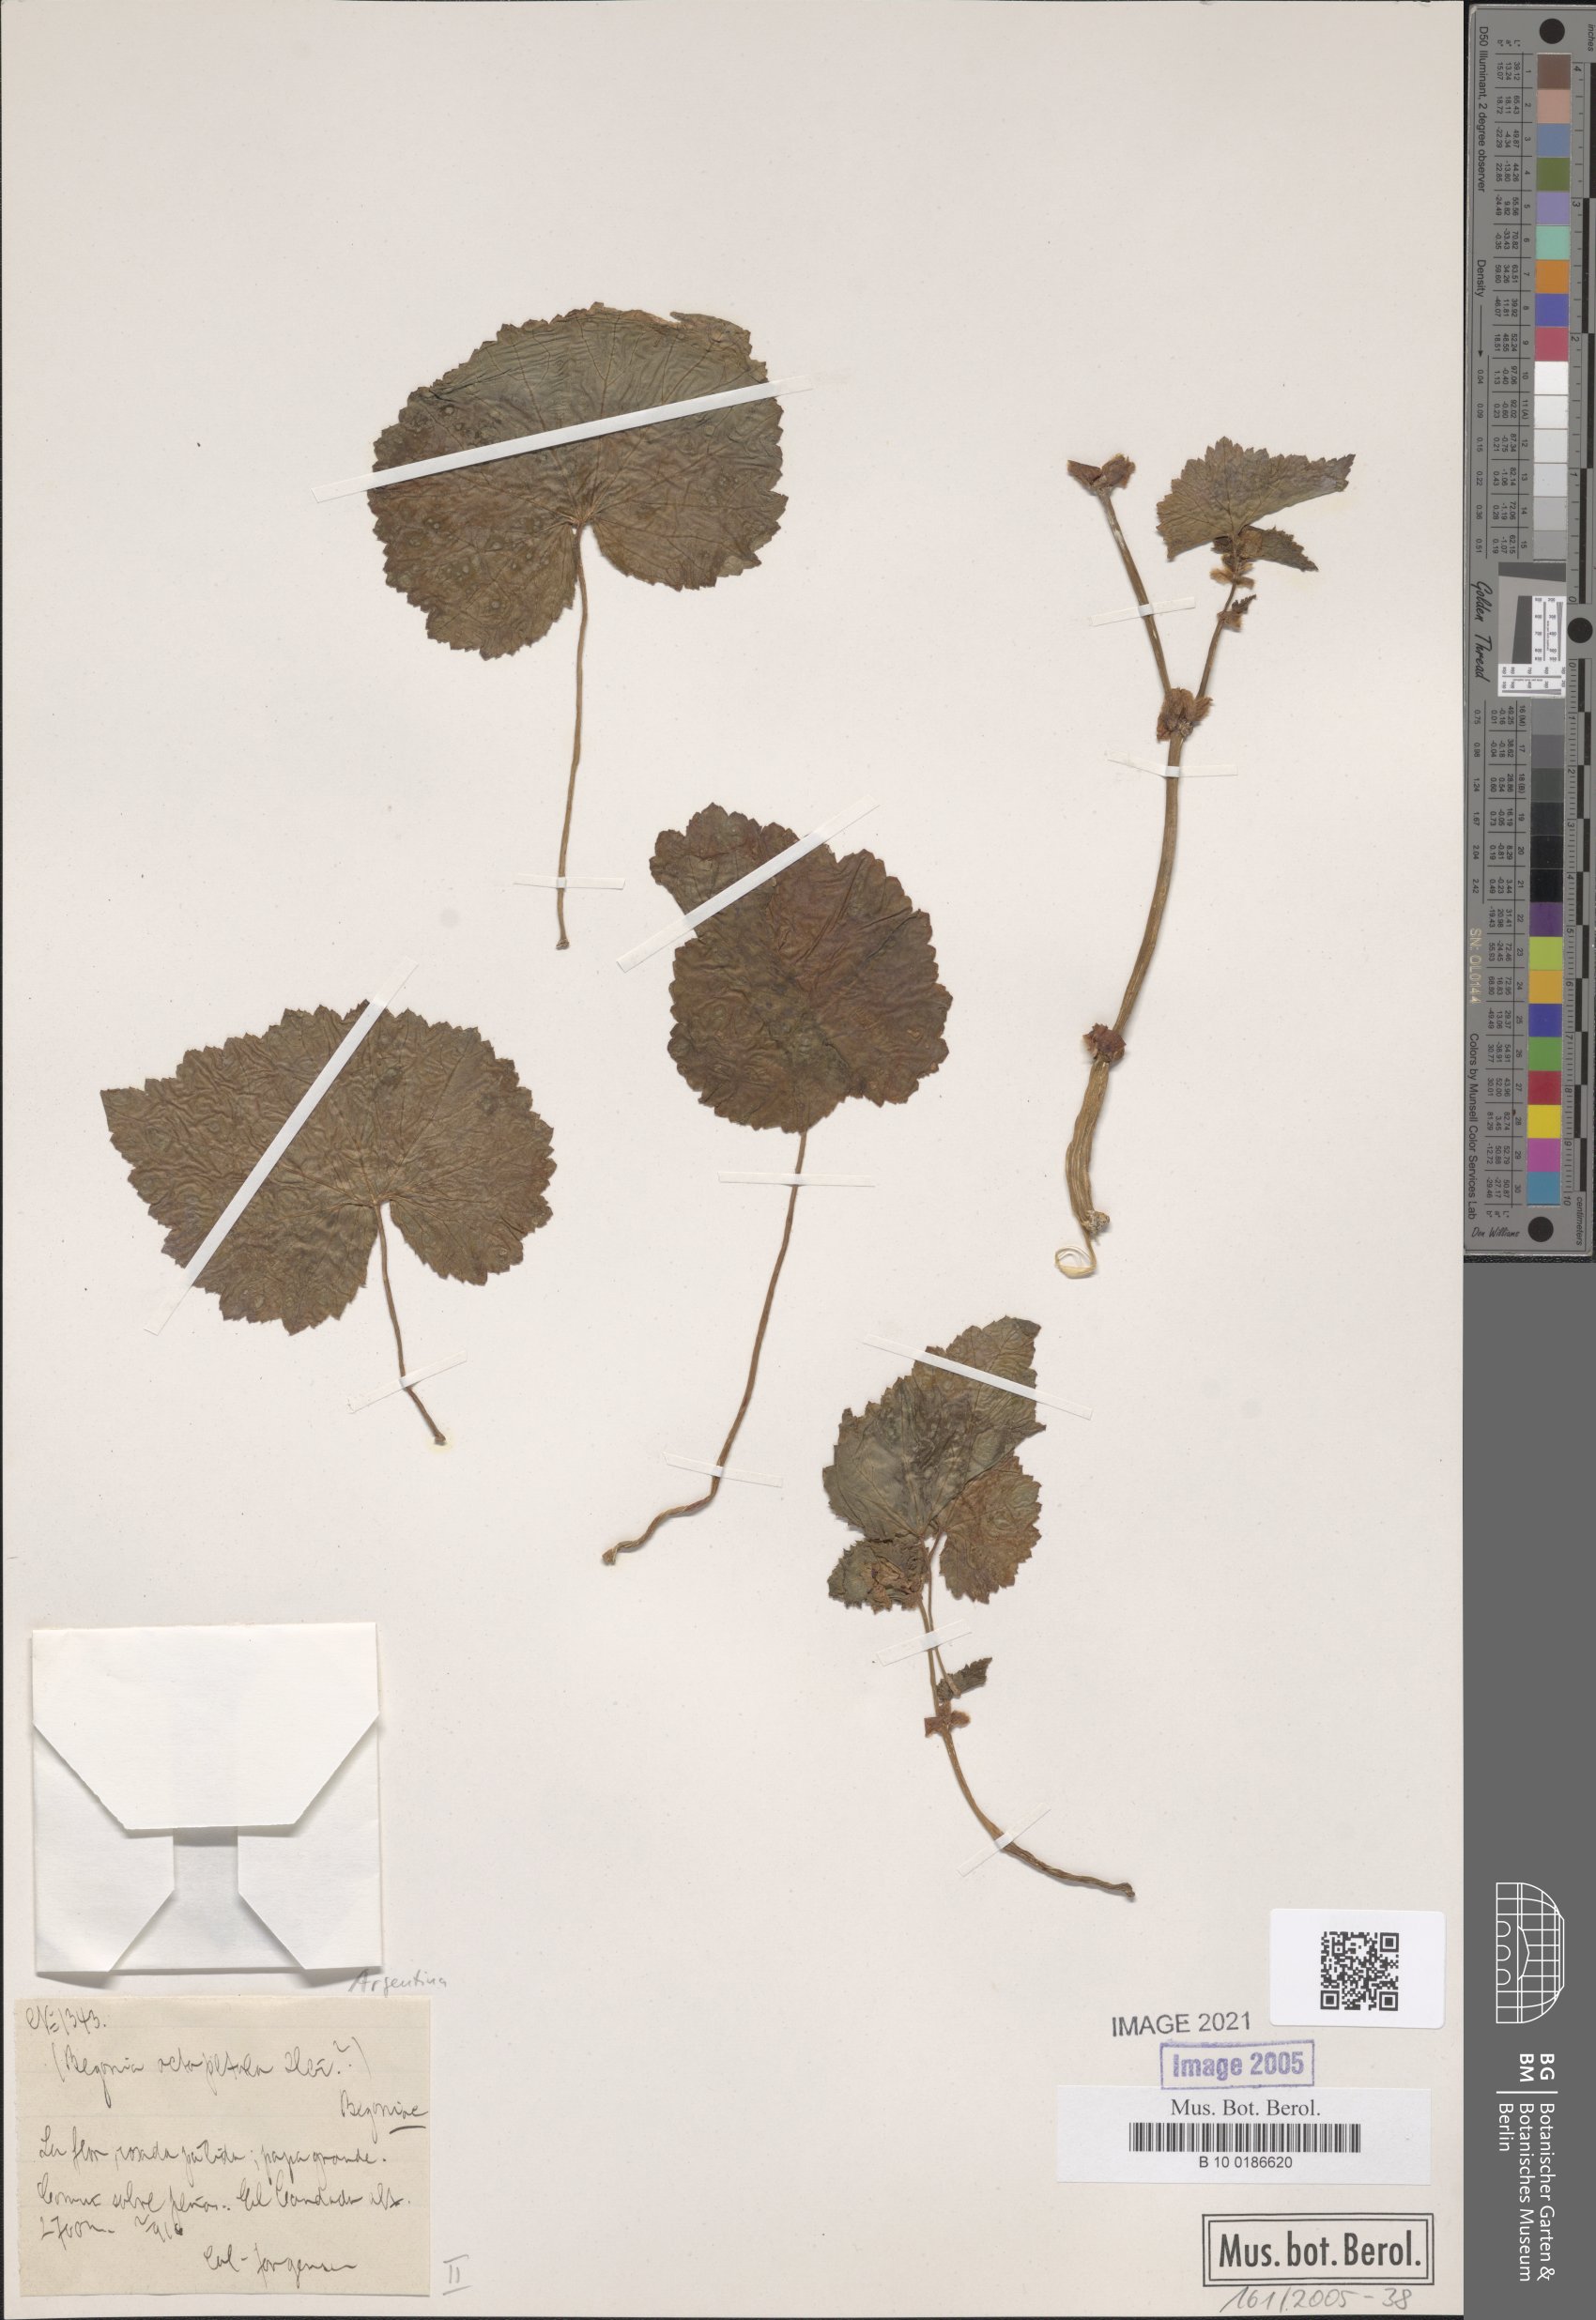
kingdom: Plantae
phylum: Tracheophyta
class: Magnoliopsida
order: Cucurbitales
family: Begoniaceae
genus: Begonia
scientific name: Begonia micranthera
